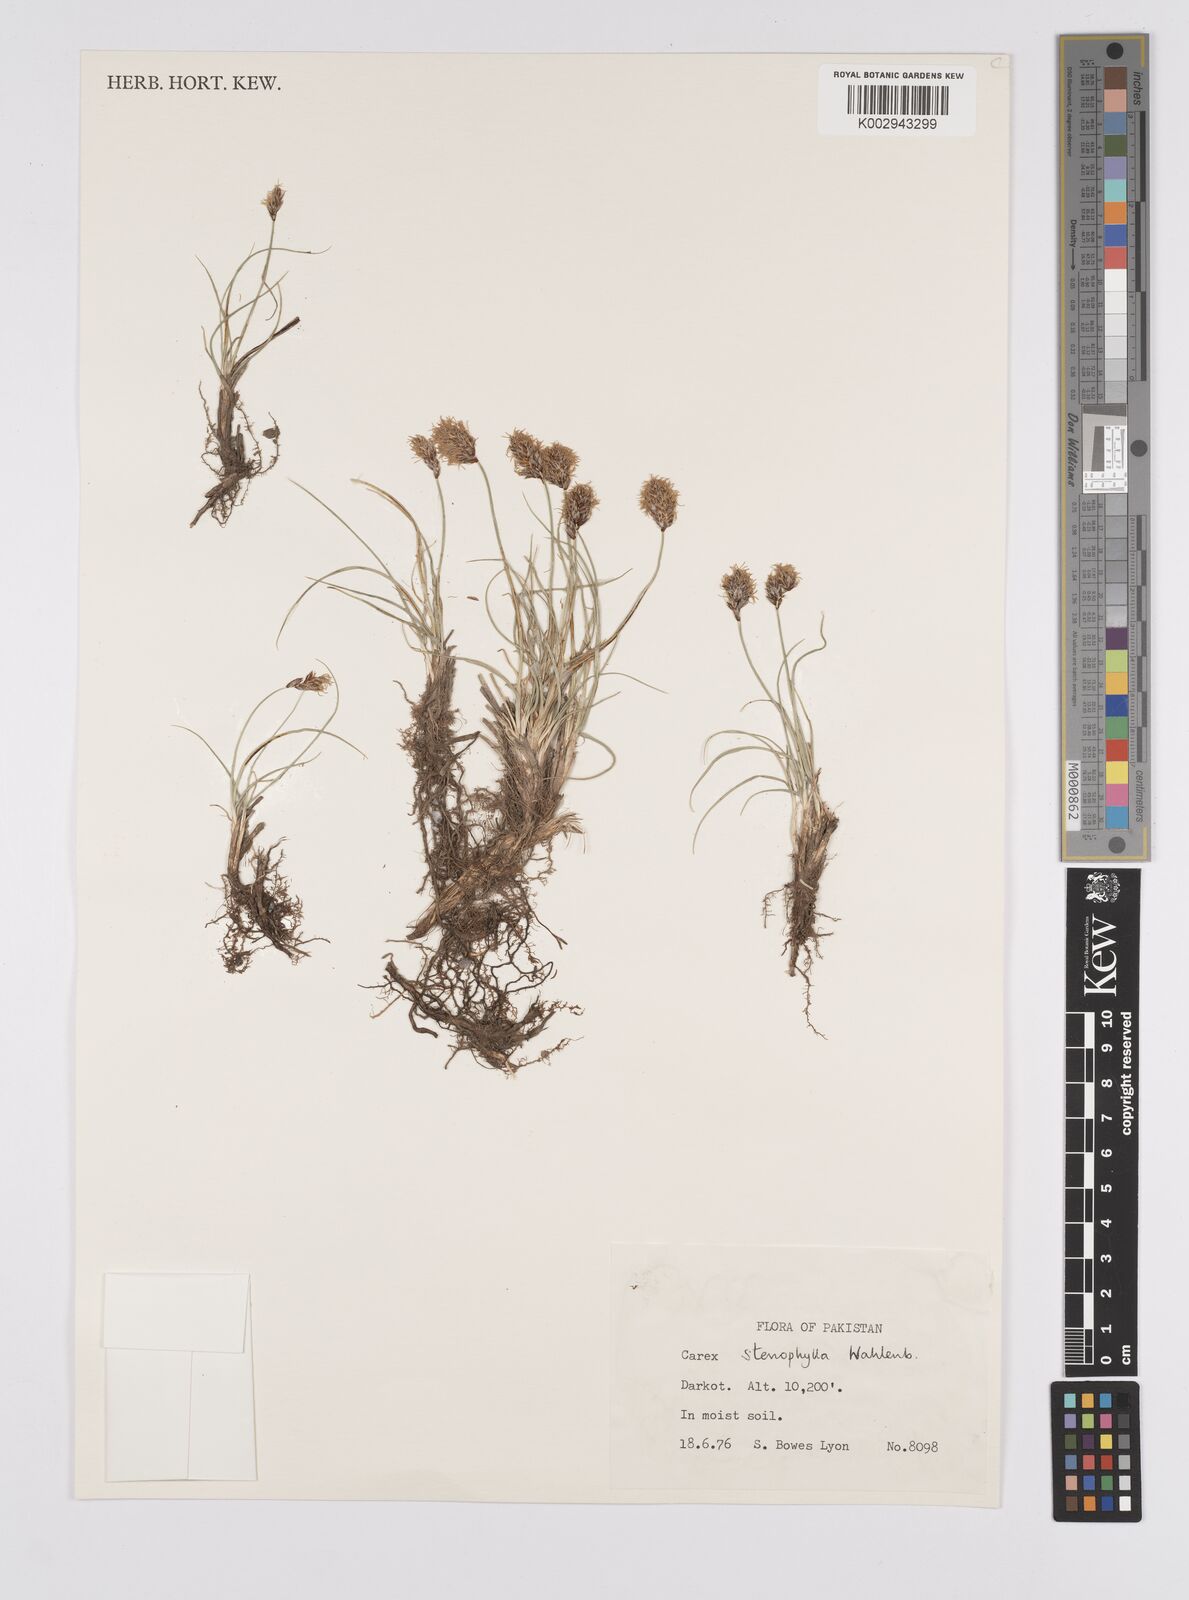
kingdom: Plantae
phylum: Tracheophyta
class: Liliopsida
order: Poales
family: Cyperaceae
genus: Carex
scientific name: Carex stenophylla
